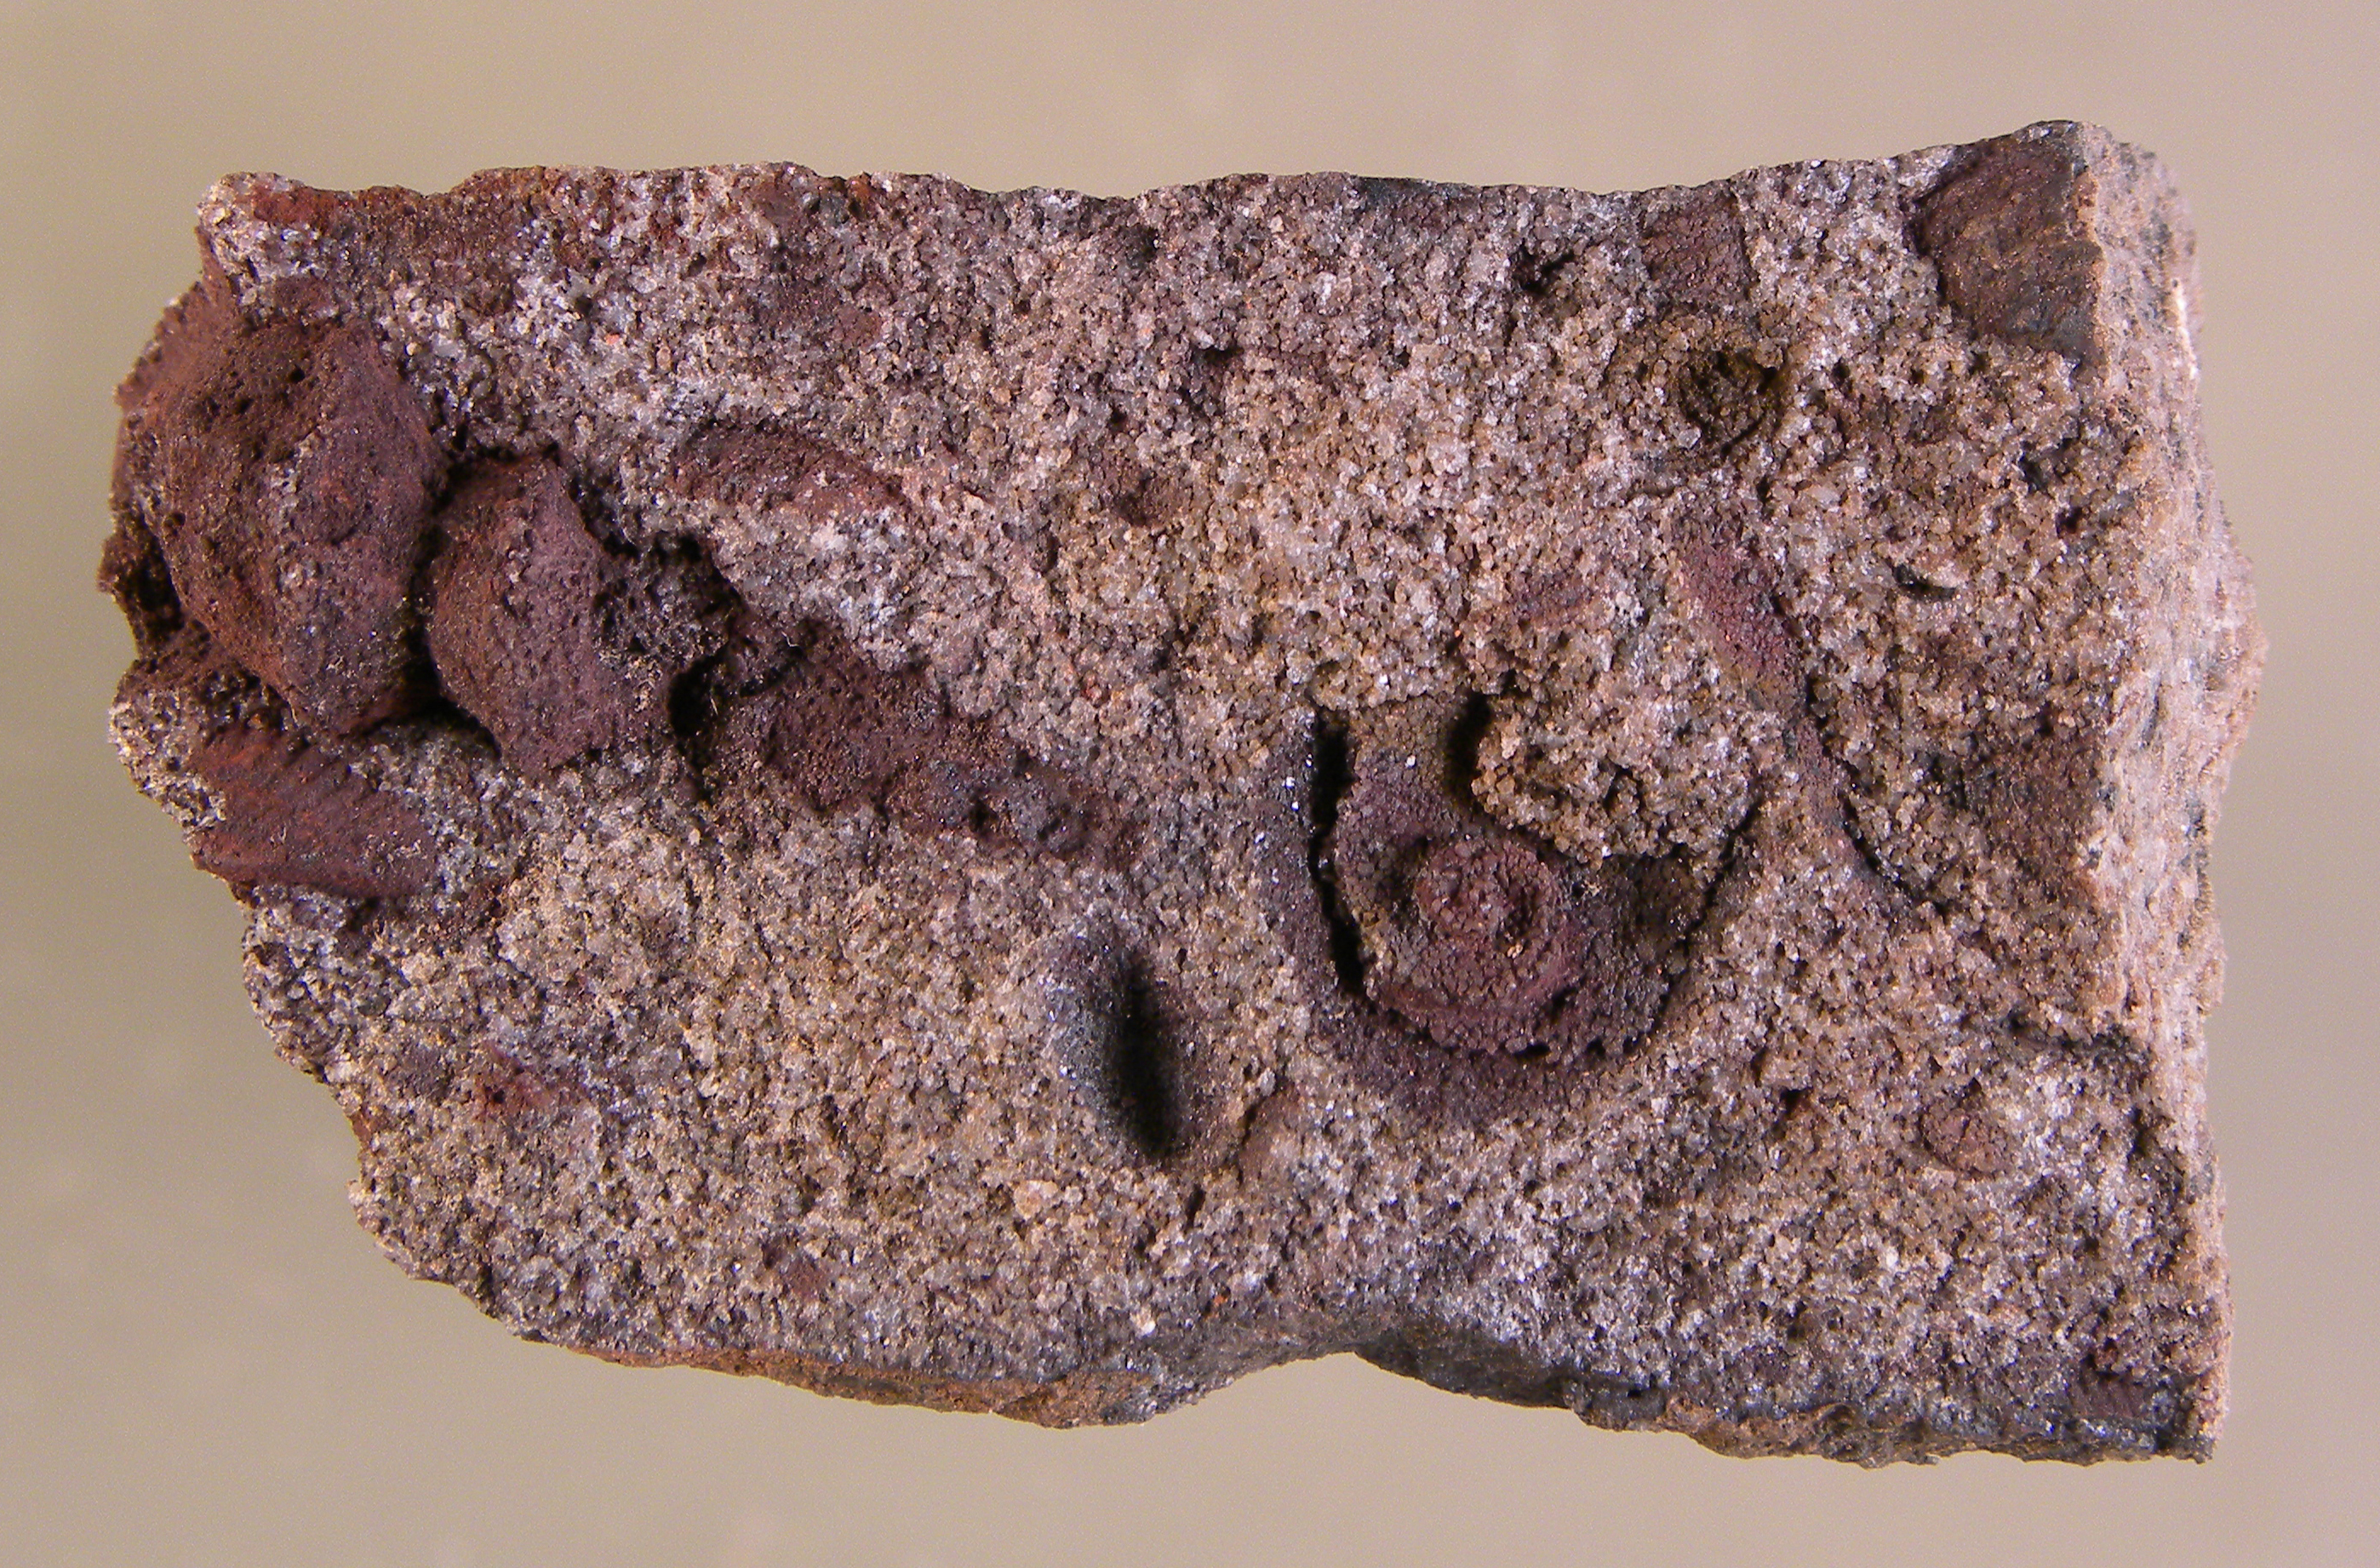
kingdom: Animalia
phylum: Mollusca
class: Bivalvia
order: Nuculanida
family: Malletiidae
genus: Palaeoneilo
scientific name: Palaeoneilo
